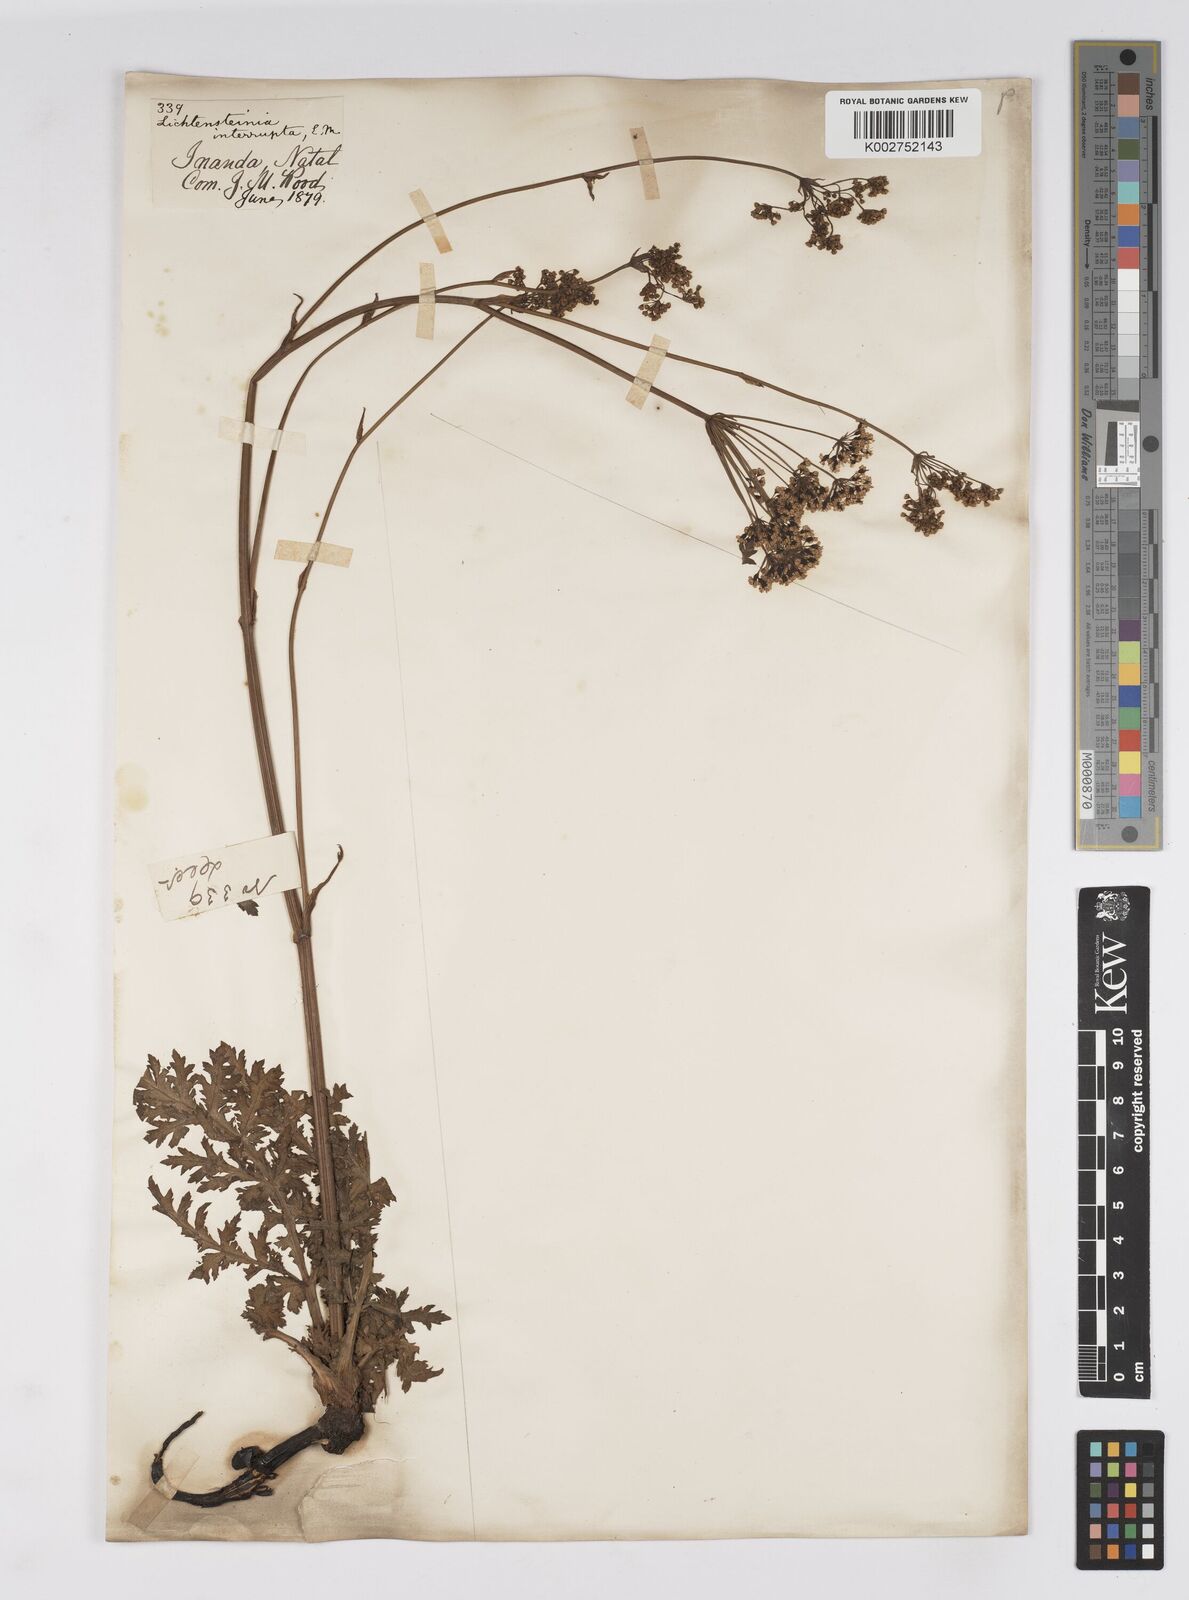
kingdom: Plantae
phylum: Tracheophyta
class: Magnoliopsida
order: Apiales
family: Apiaceae
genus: Lichtensteinia
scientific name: Lichtensteinia interrupta
